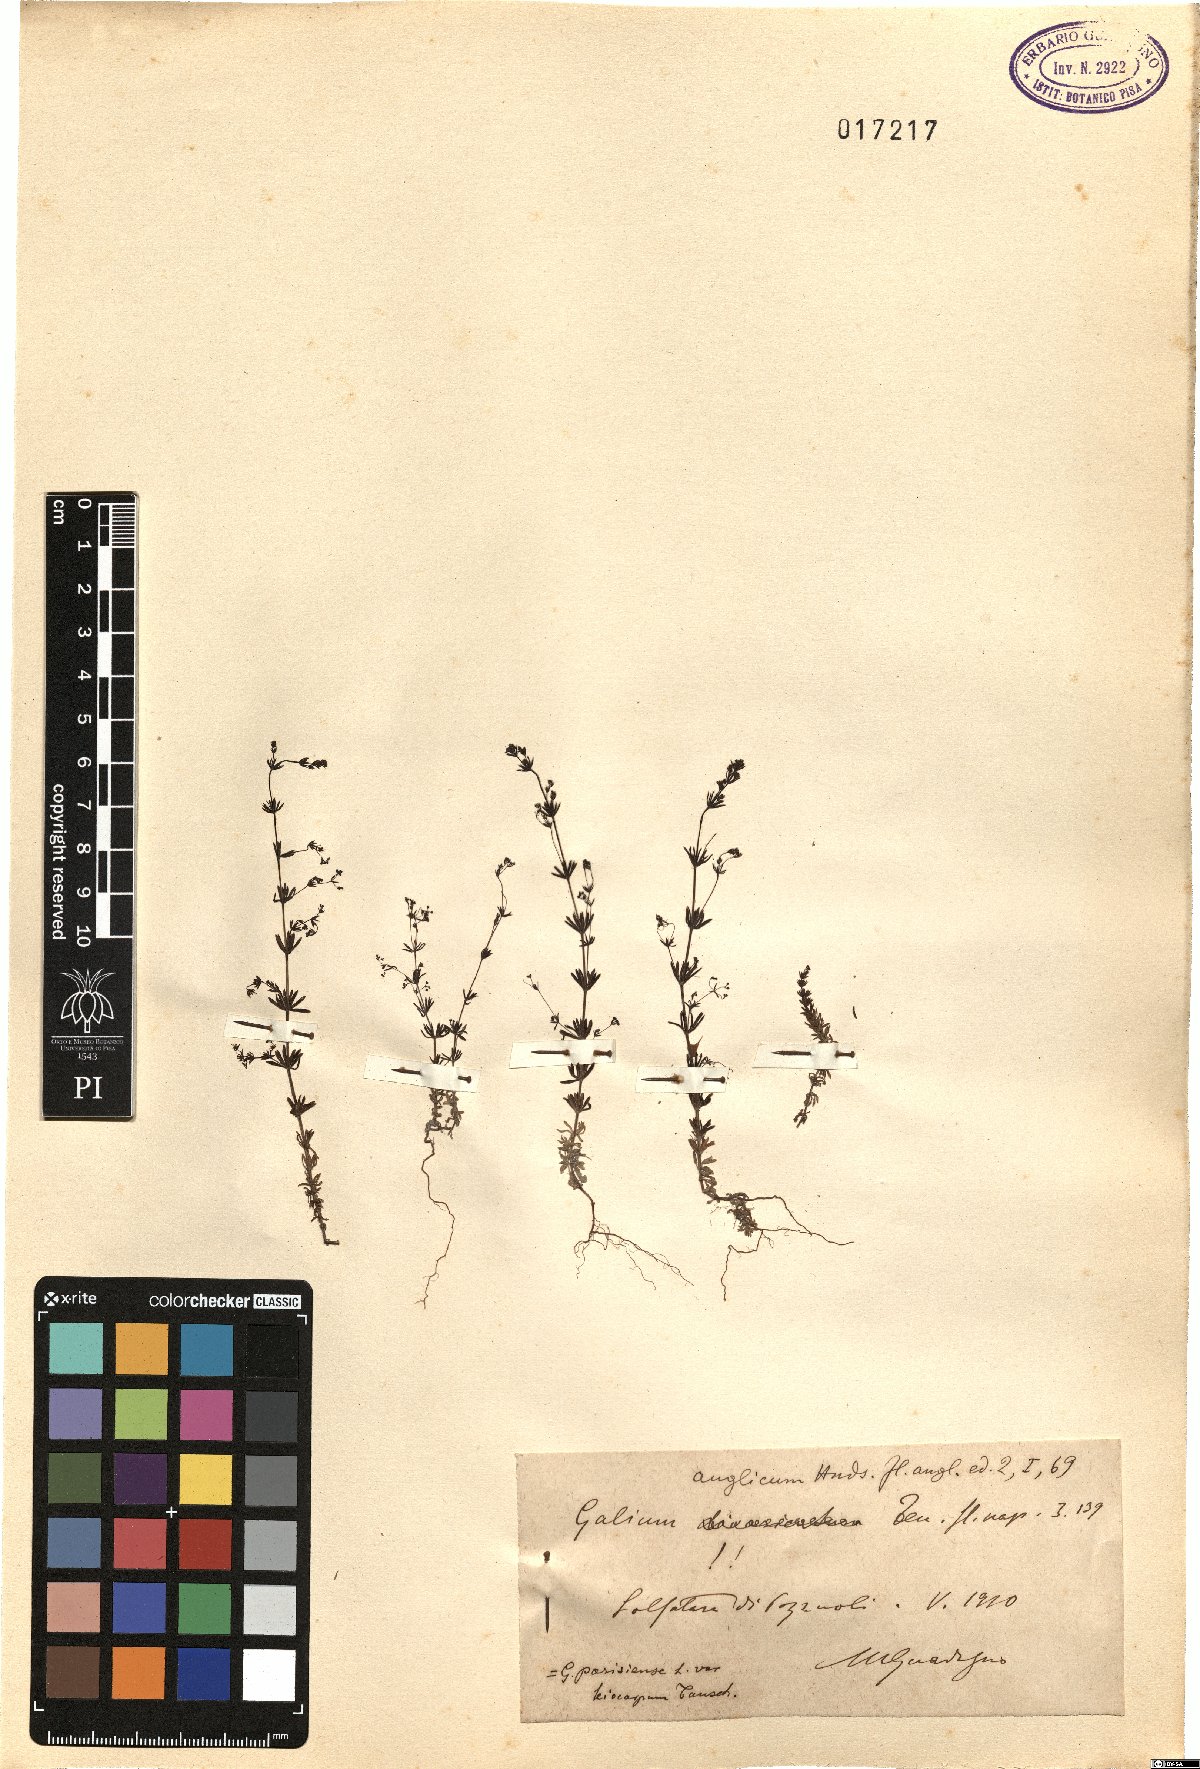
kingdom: Plantae
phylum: Tracheophyta
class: Magnoliopsida
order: Gentianales
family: Rubiaceae
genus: Galium
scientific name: Galium anglicum
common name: English bedstraw
